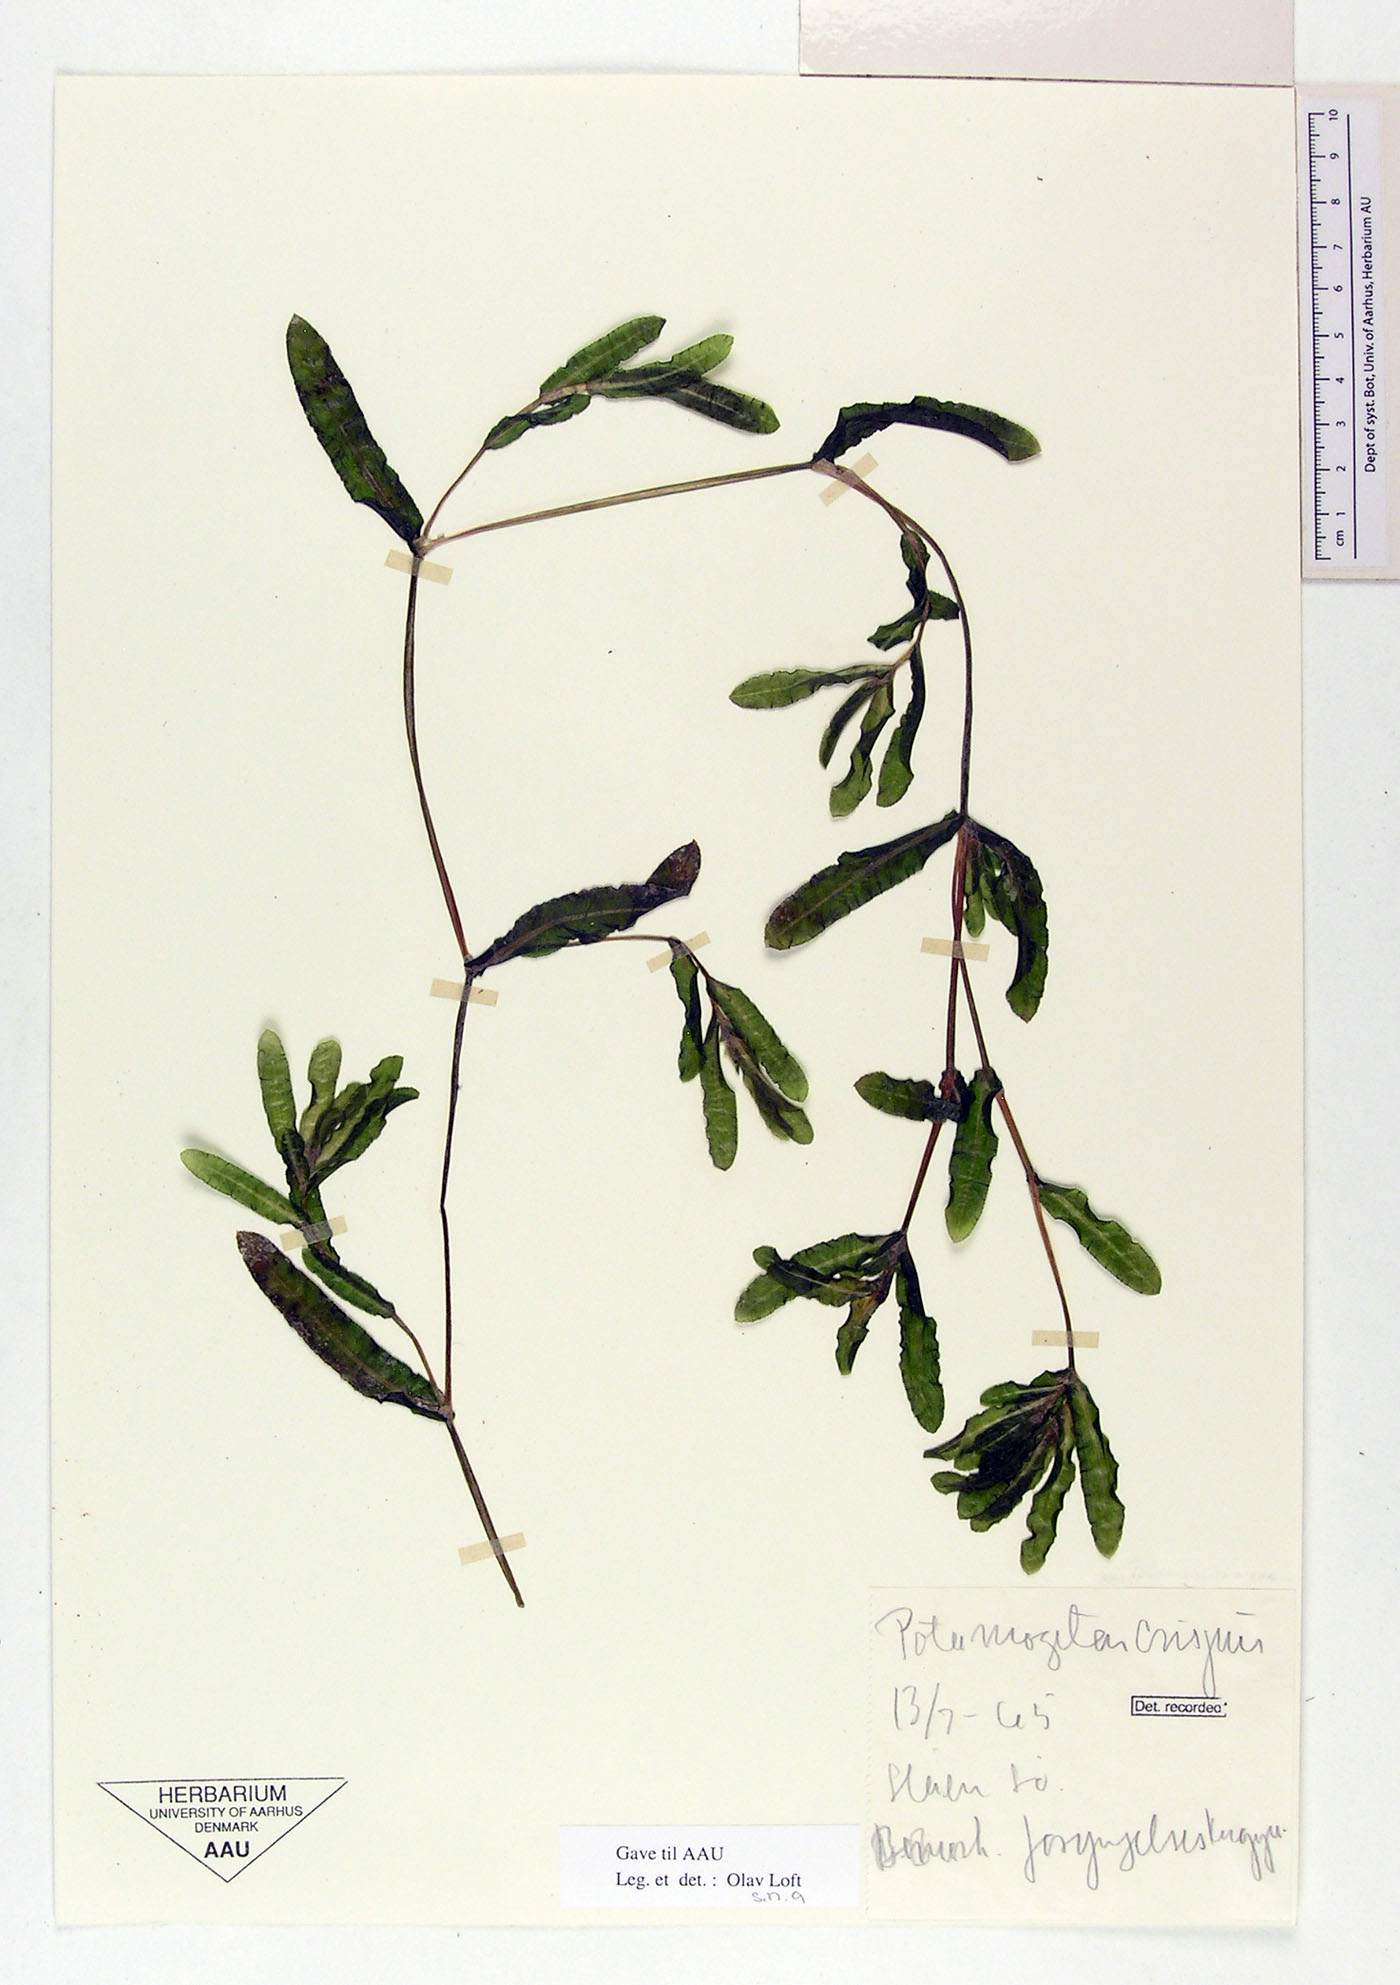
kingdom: Plantae
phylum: Tracheophyta
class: Liliopsida
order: Alismatales
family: Potamogetonaceae
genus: Potamogeton
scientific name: Potamogeton crispus
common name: Curled pondweed
